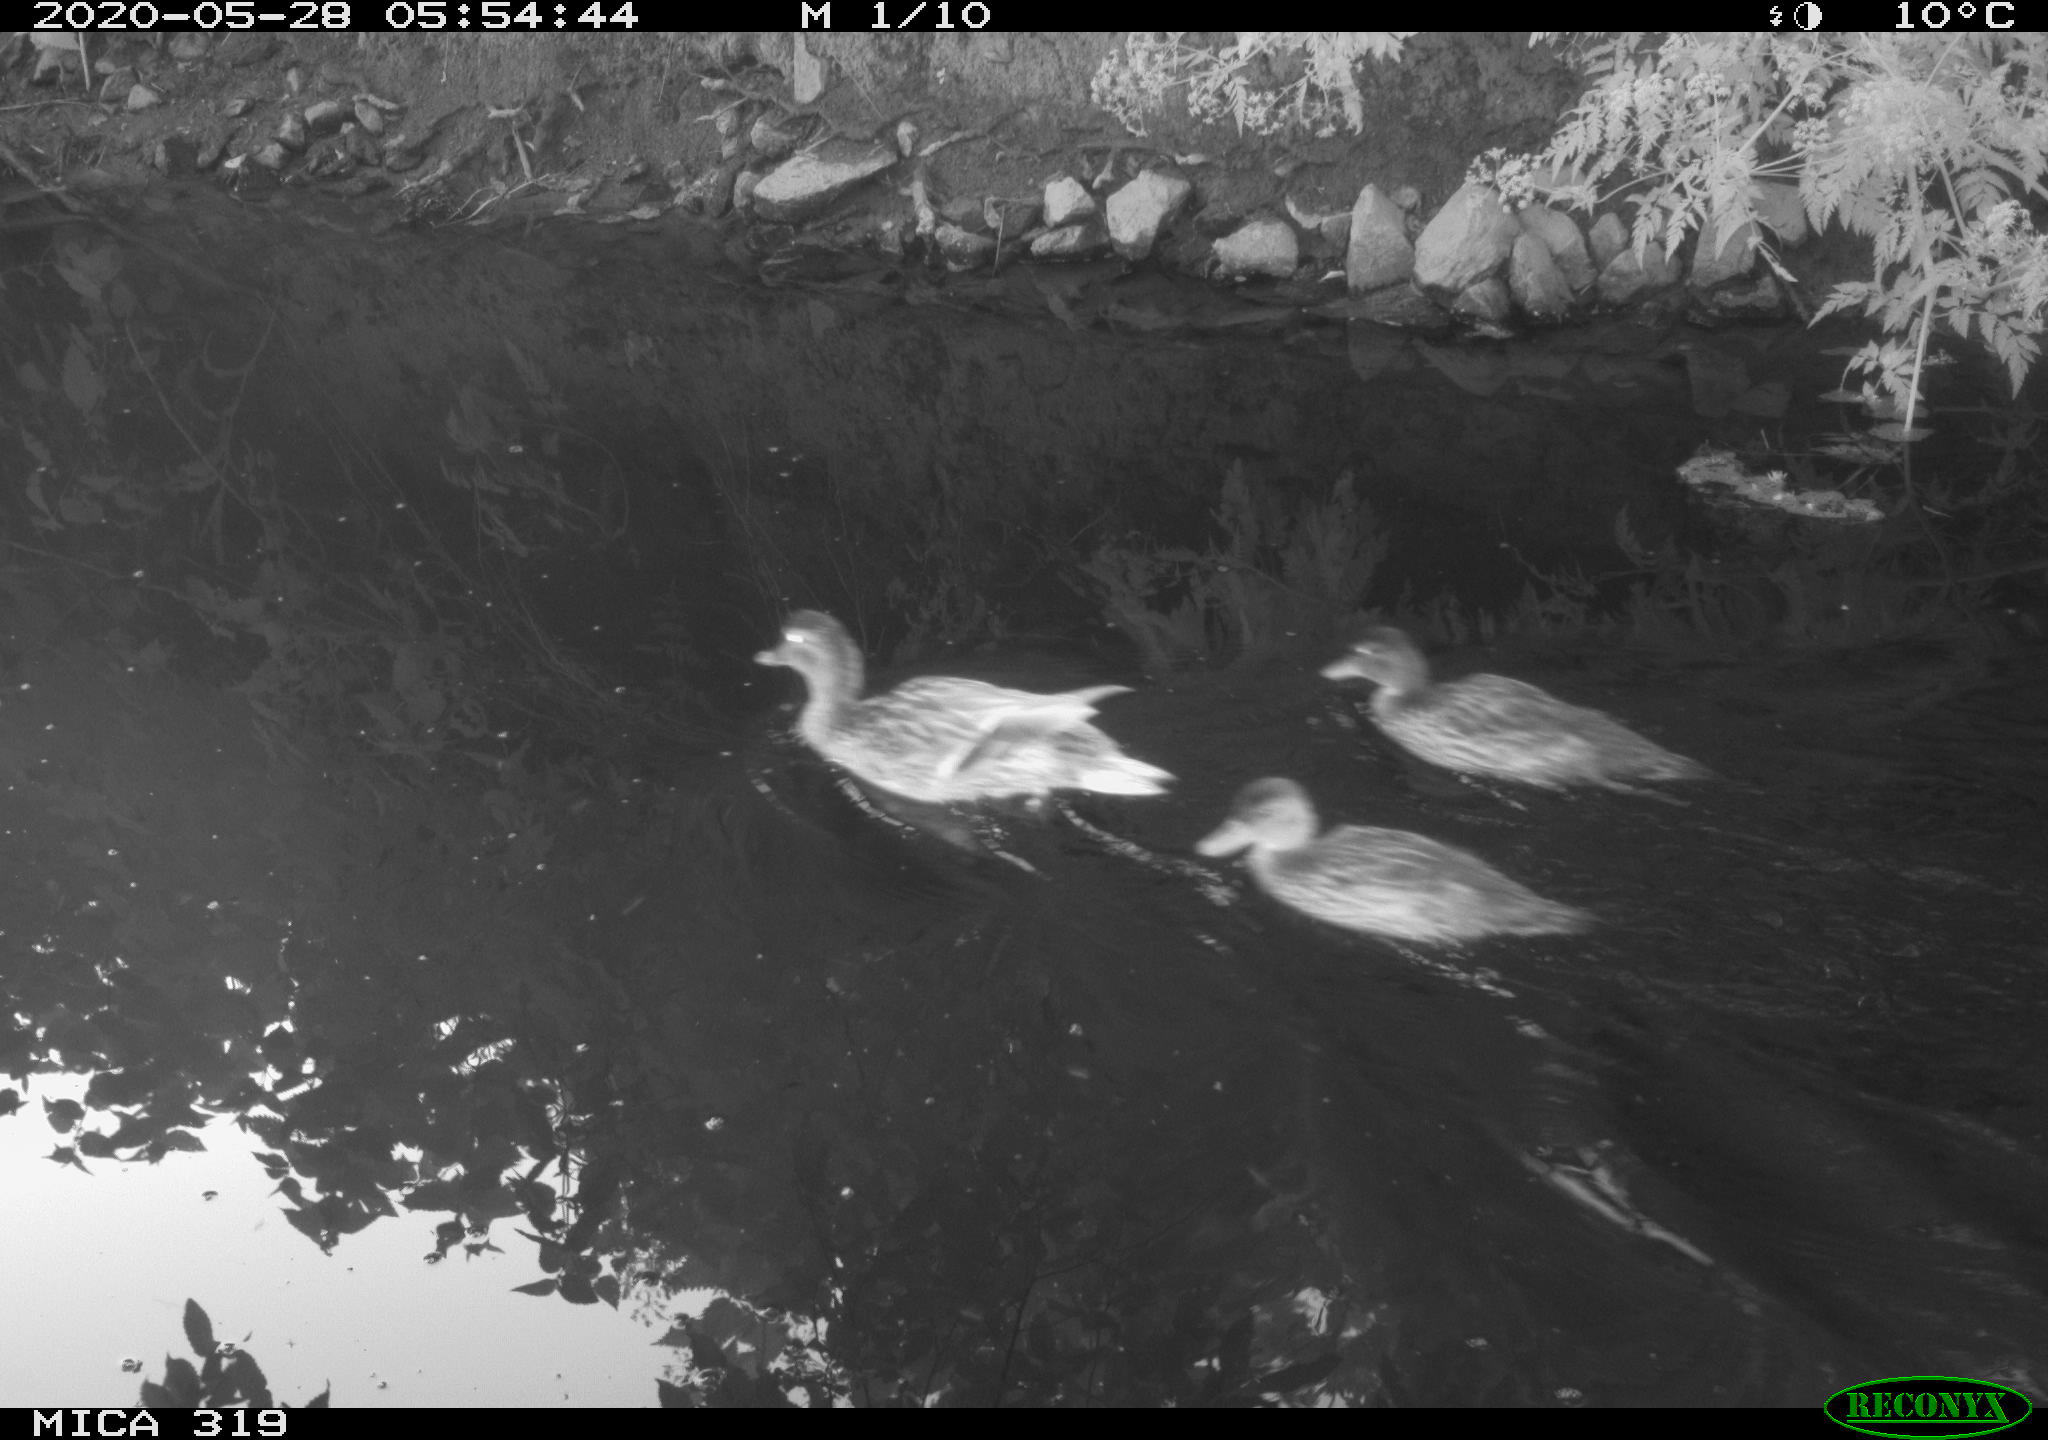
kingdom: Animalia
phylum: Chordata
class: Aves
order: Anseriformes
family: Anatidae
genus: Anas
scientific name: Anas platyrhynchos
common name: Mallard
